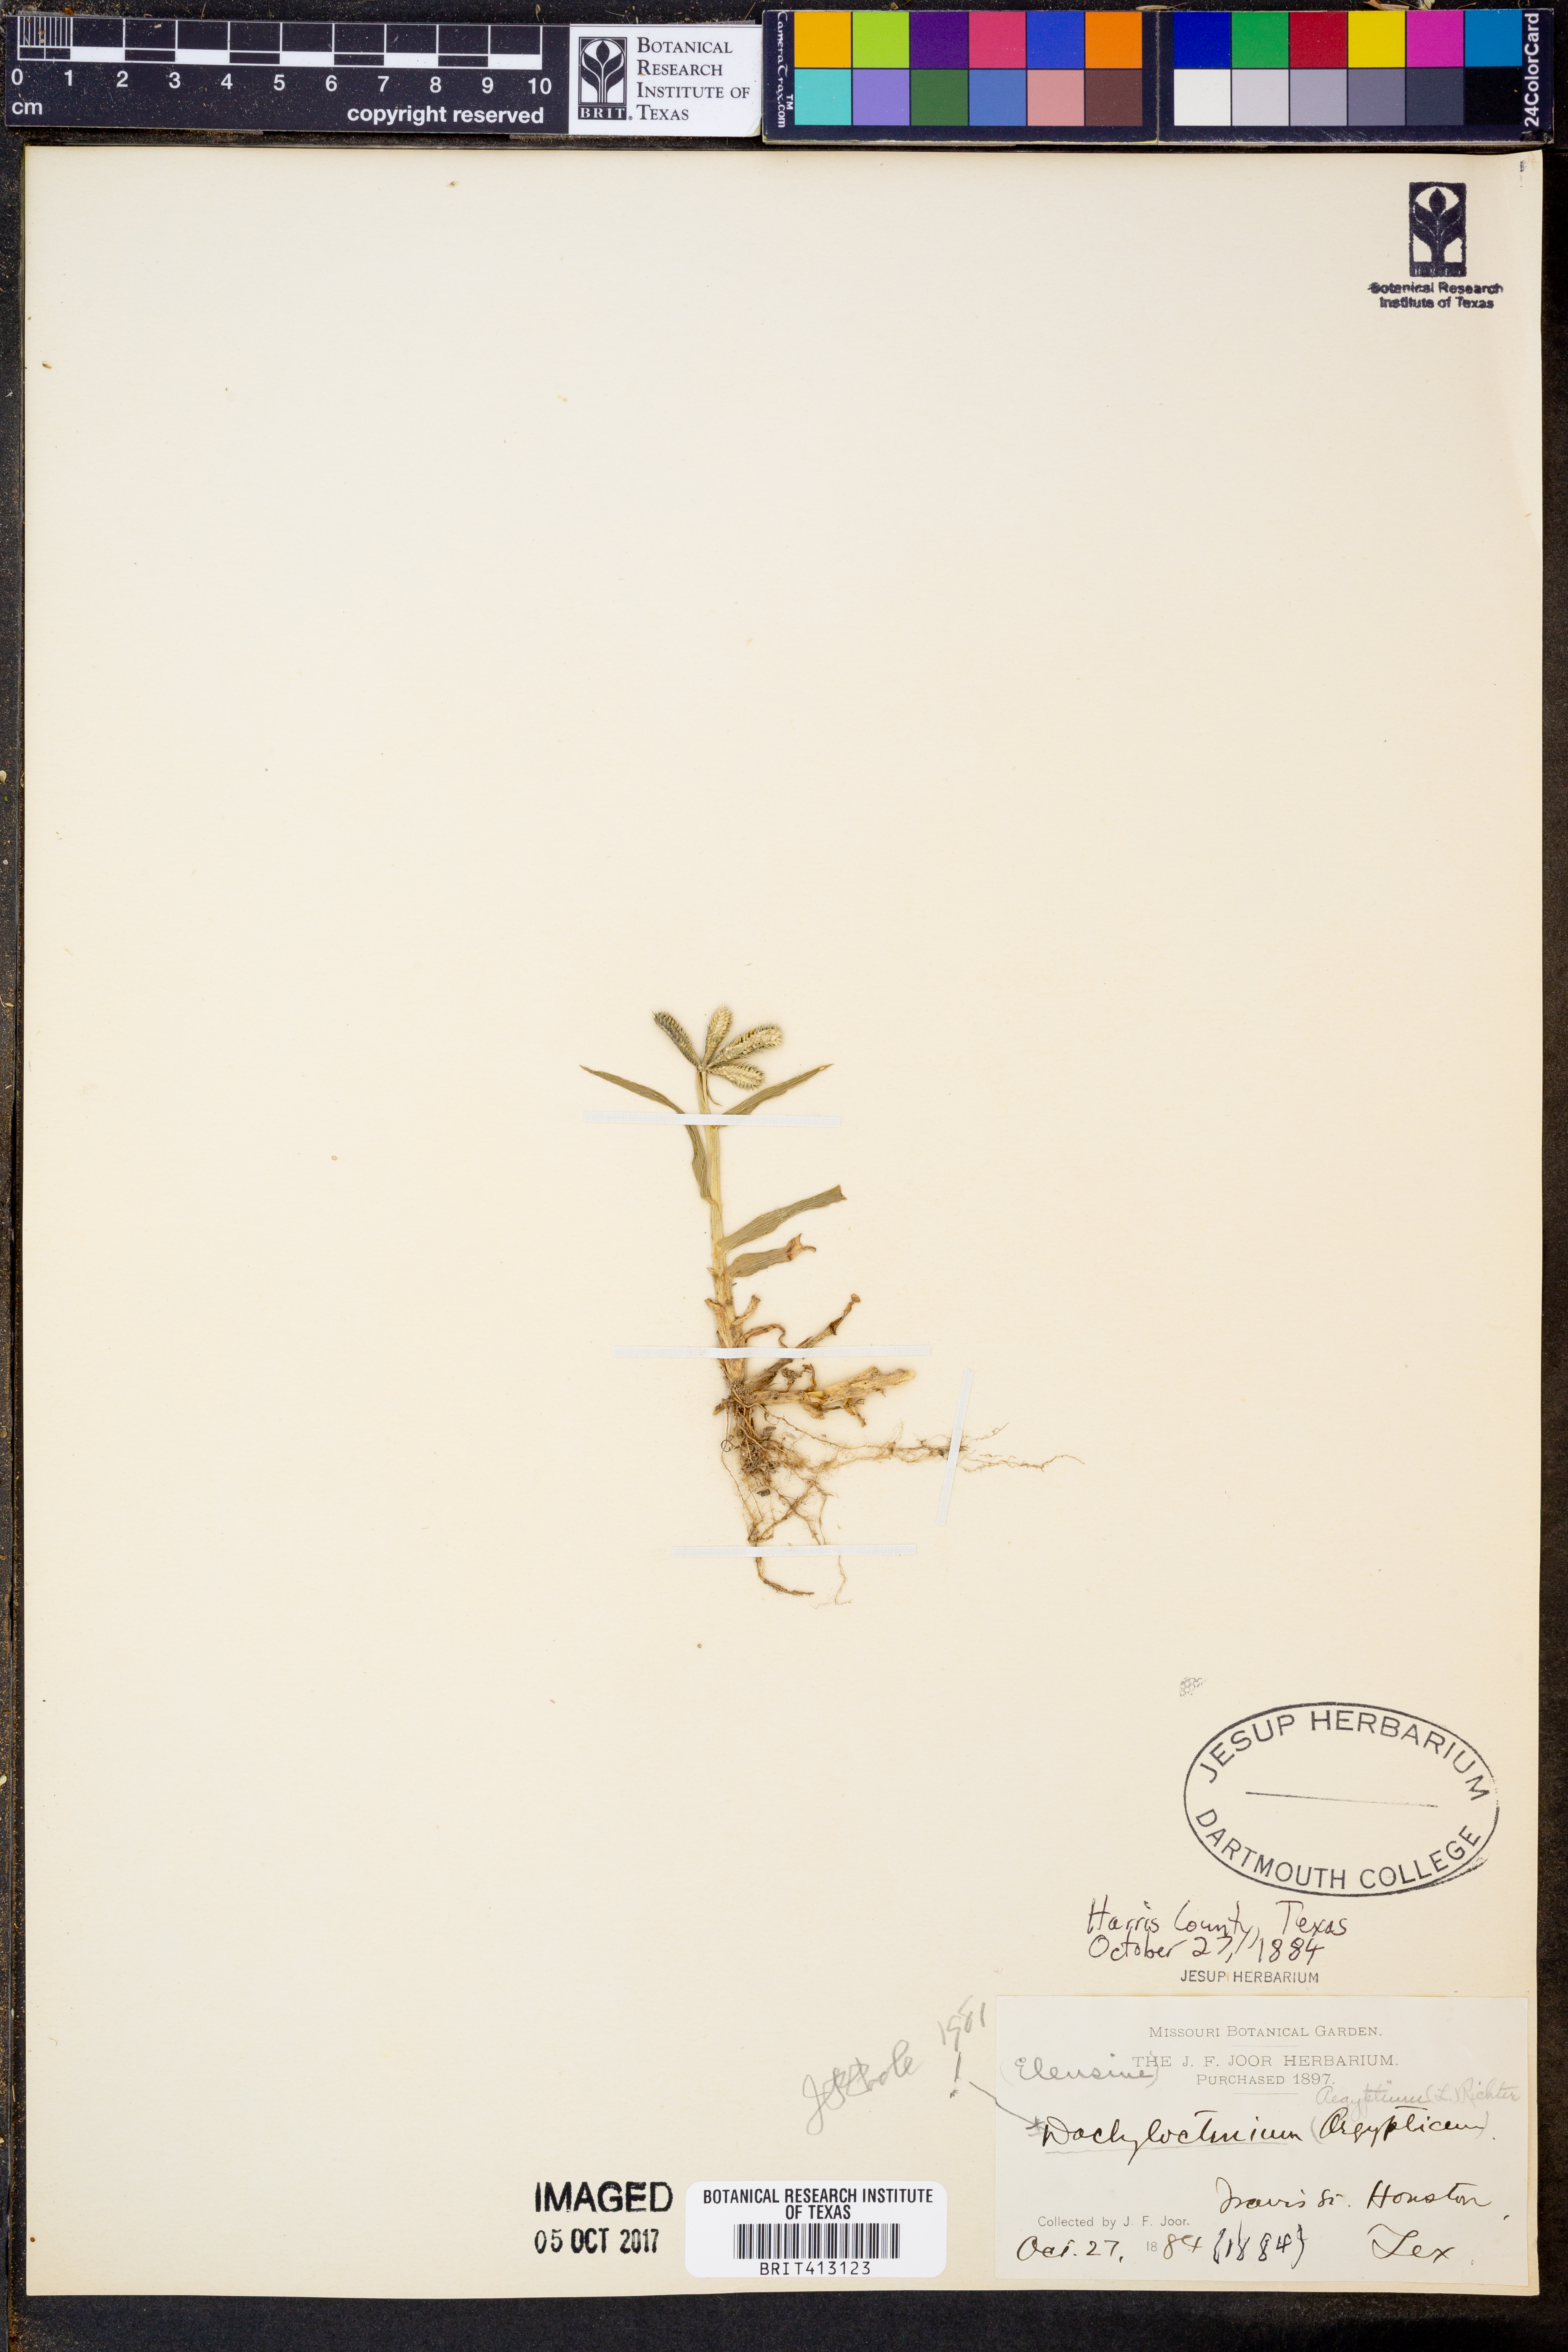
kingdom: Plantae
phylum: Tracheophyta
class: Liliopsida
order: Poales
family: Poaceae
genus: Dactyloctenium
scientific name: Dactyloctenium aegyptium
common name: Egyptian grass
